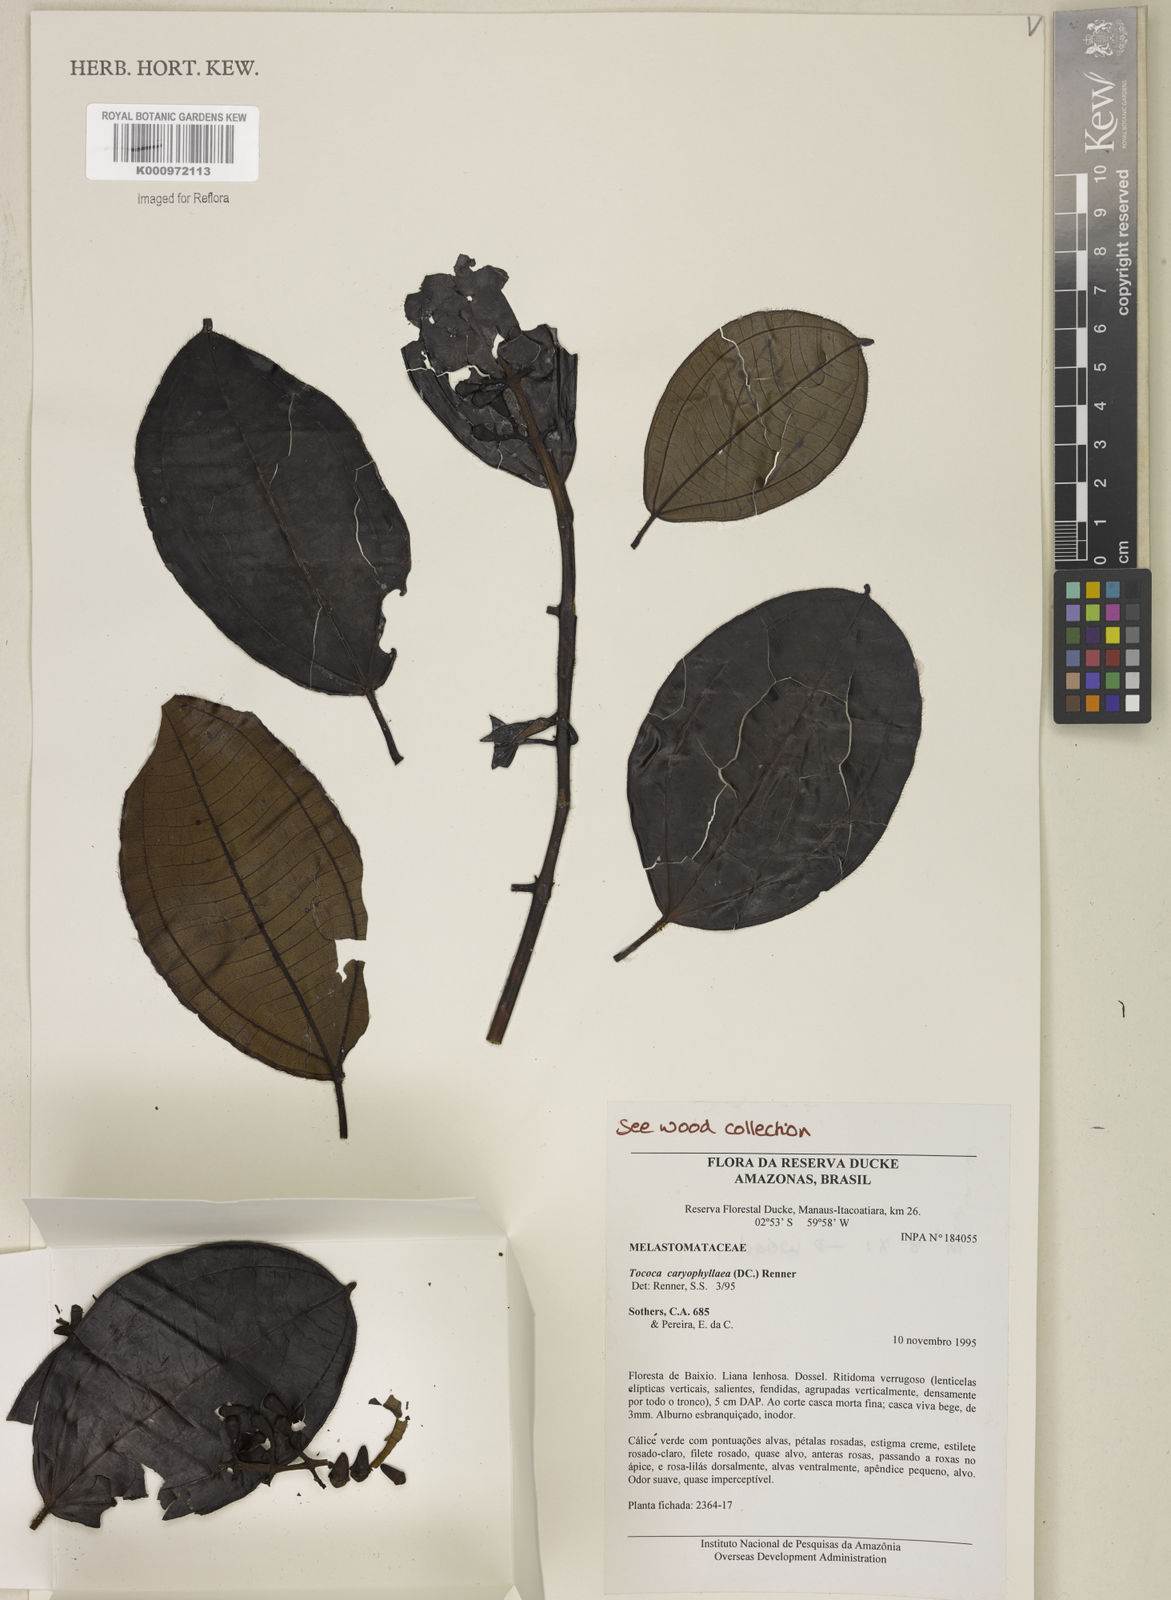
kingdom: Plantae
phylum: Tracheophyta
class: Magnoliopsida
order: Myrtales
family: Melastomataceae
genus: Miconia
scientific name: Miconia caryophyllacea
